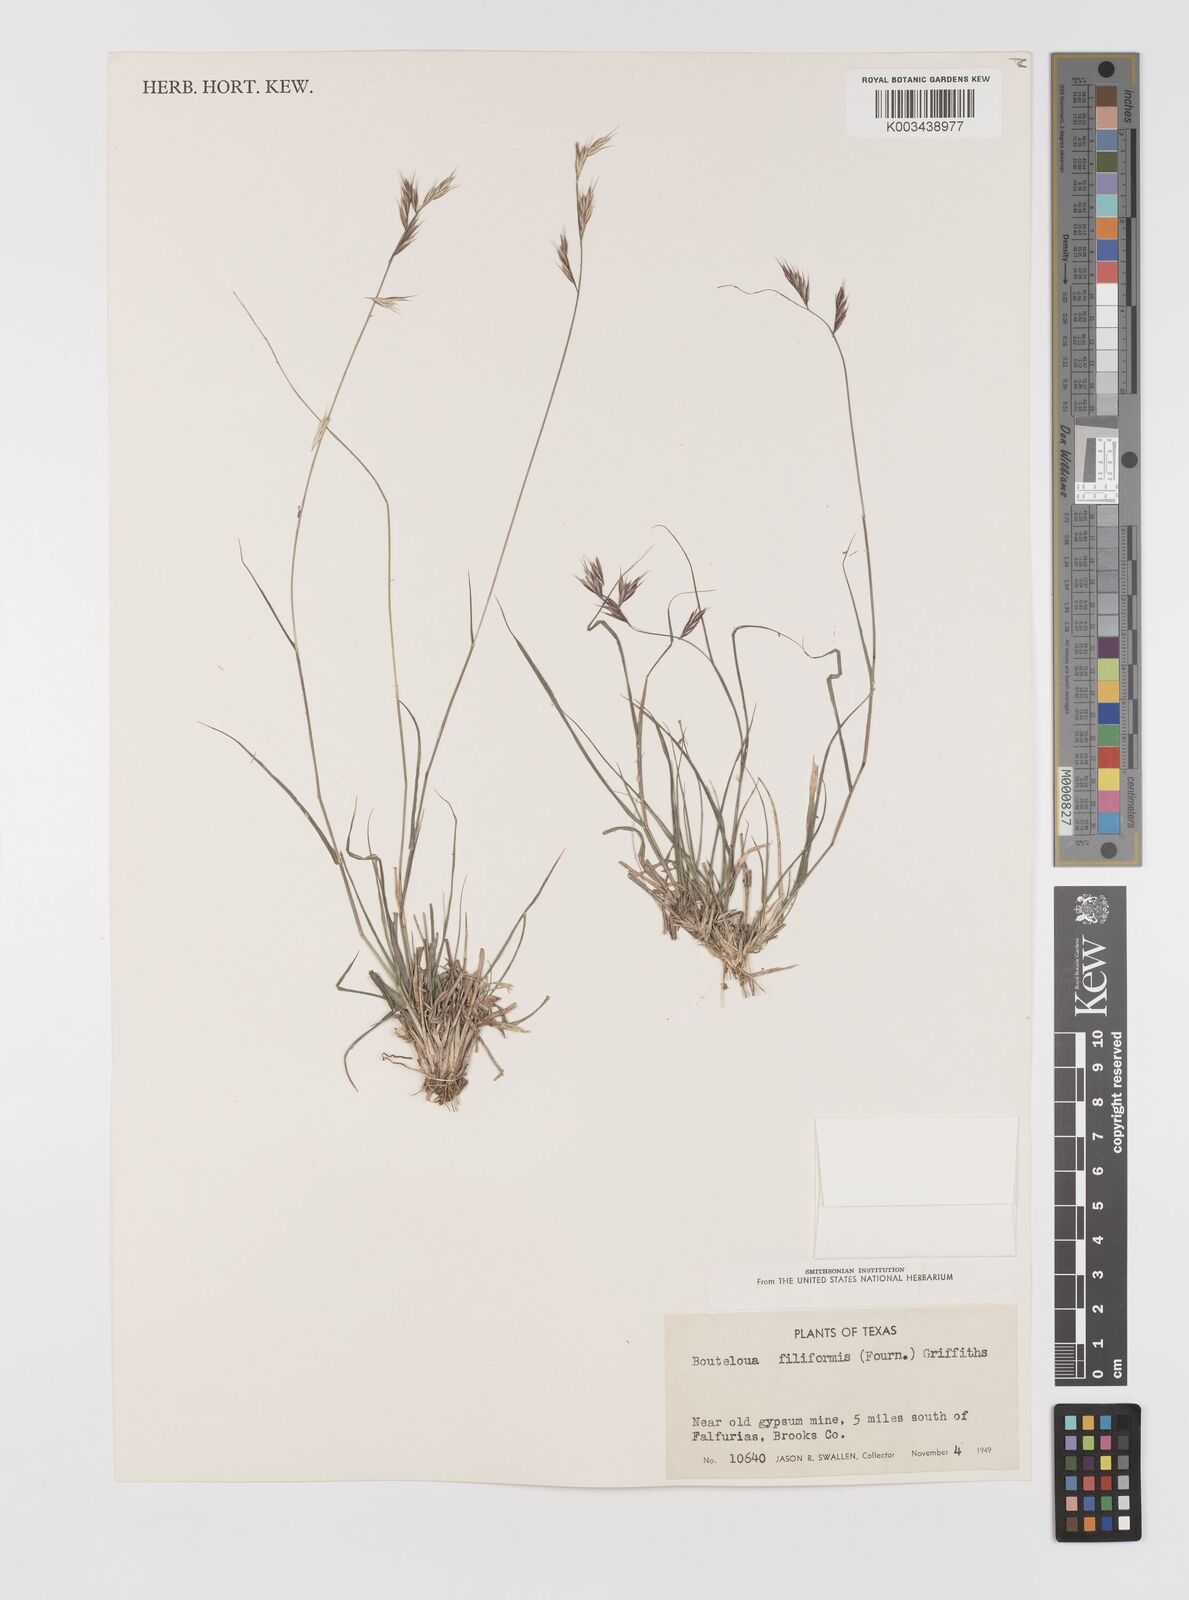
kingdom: Plantae
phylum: Tracheophyta
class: Liliopsida
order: Poales
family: Poaceae
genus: Bouteloua
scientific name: Bouteloua repens
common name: Slender grama
